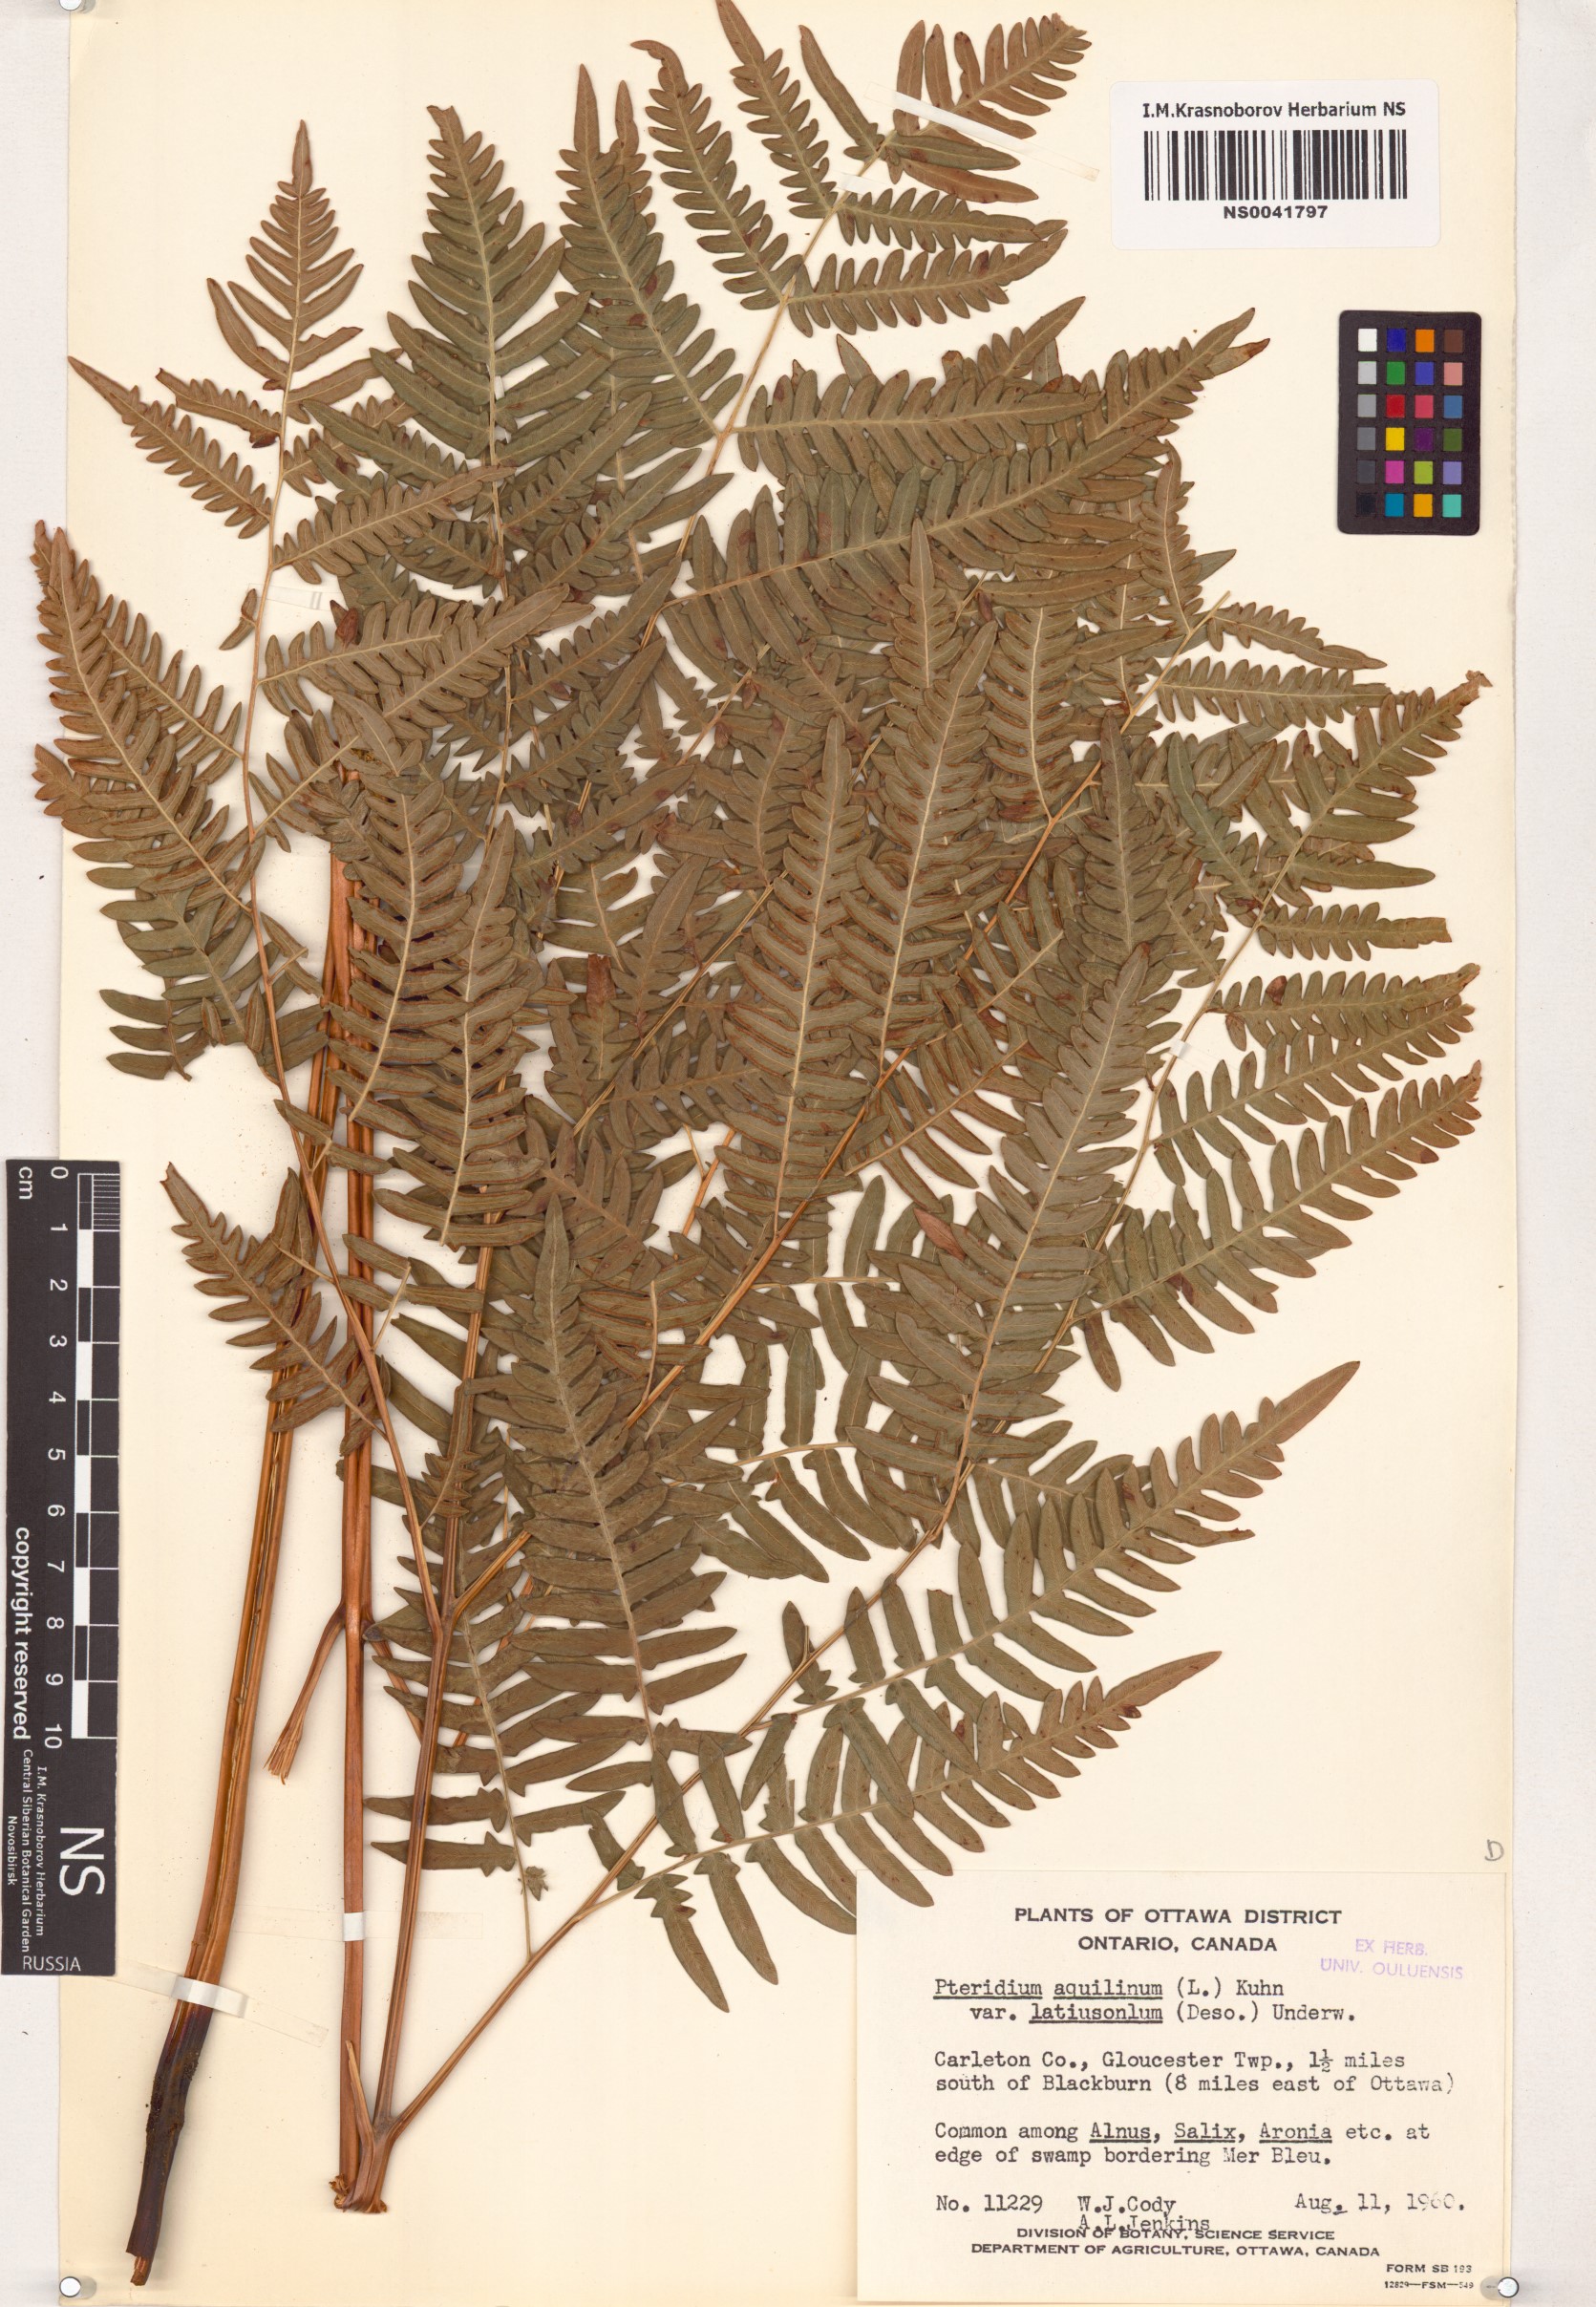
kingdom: Plantae
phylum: Tracheophyta
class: Polypodiopsida
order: Polypodiales
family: Dennstaedtiaceae
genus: Pteridium
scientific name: Pteridium aquilinum
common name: Bracken
